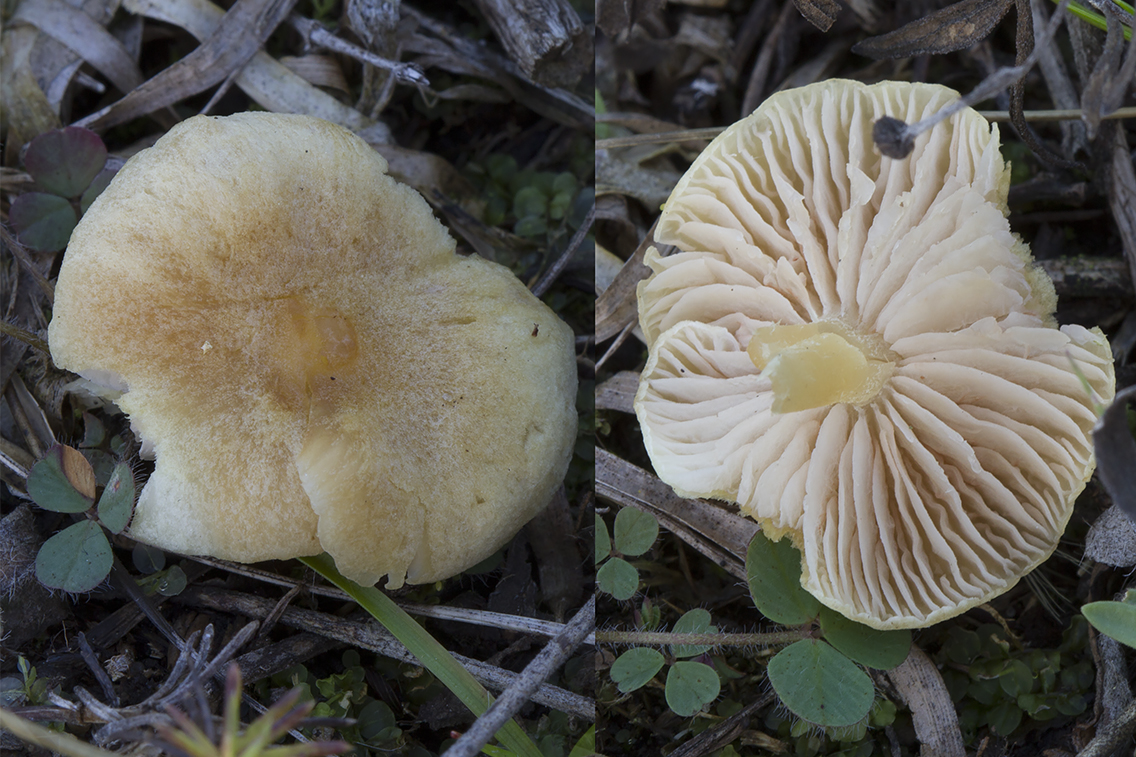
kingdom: Fungi
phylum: Basidiomycota
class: Agaricomycetes
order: Agaricales
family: Entolomataceae
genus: Entoloma
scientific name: Entoloma
